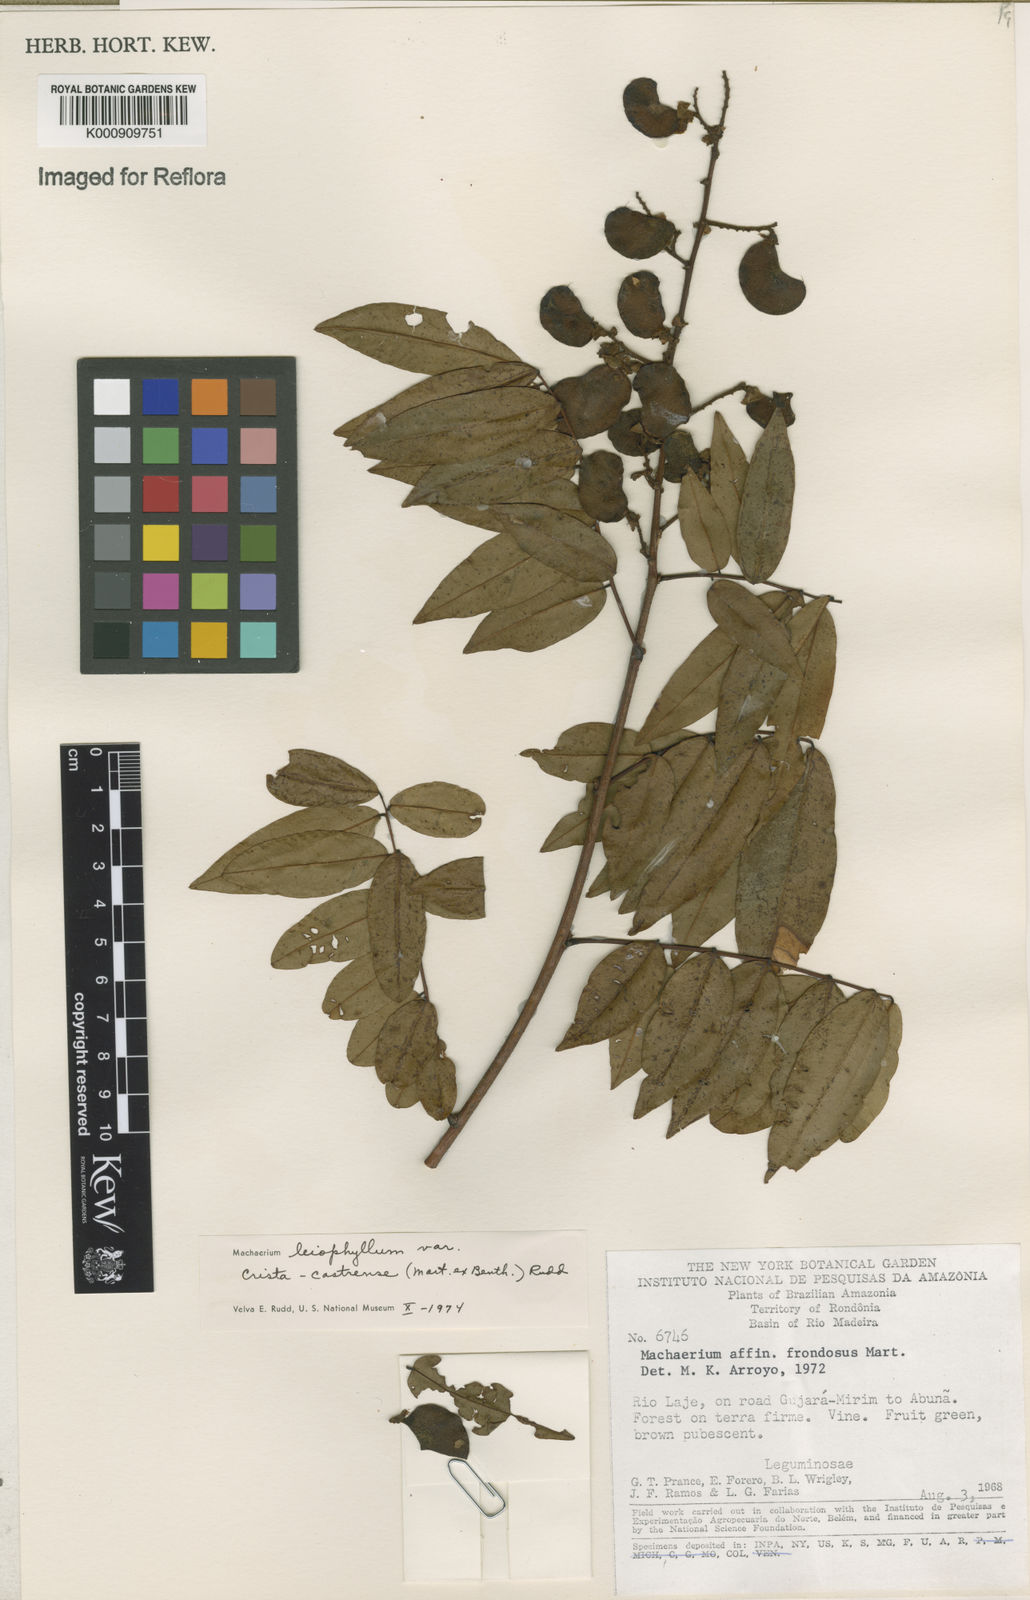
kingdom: Plantae
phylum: Tracheophyta
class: Magnoliopsida
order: Fabales
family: Fabaceae
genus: Machaerium
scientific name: Machaerium leiophyllum
